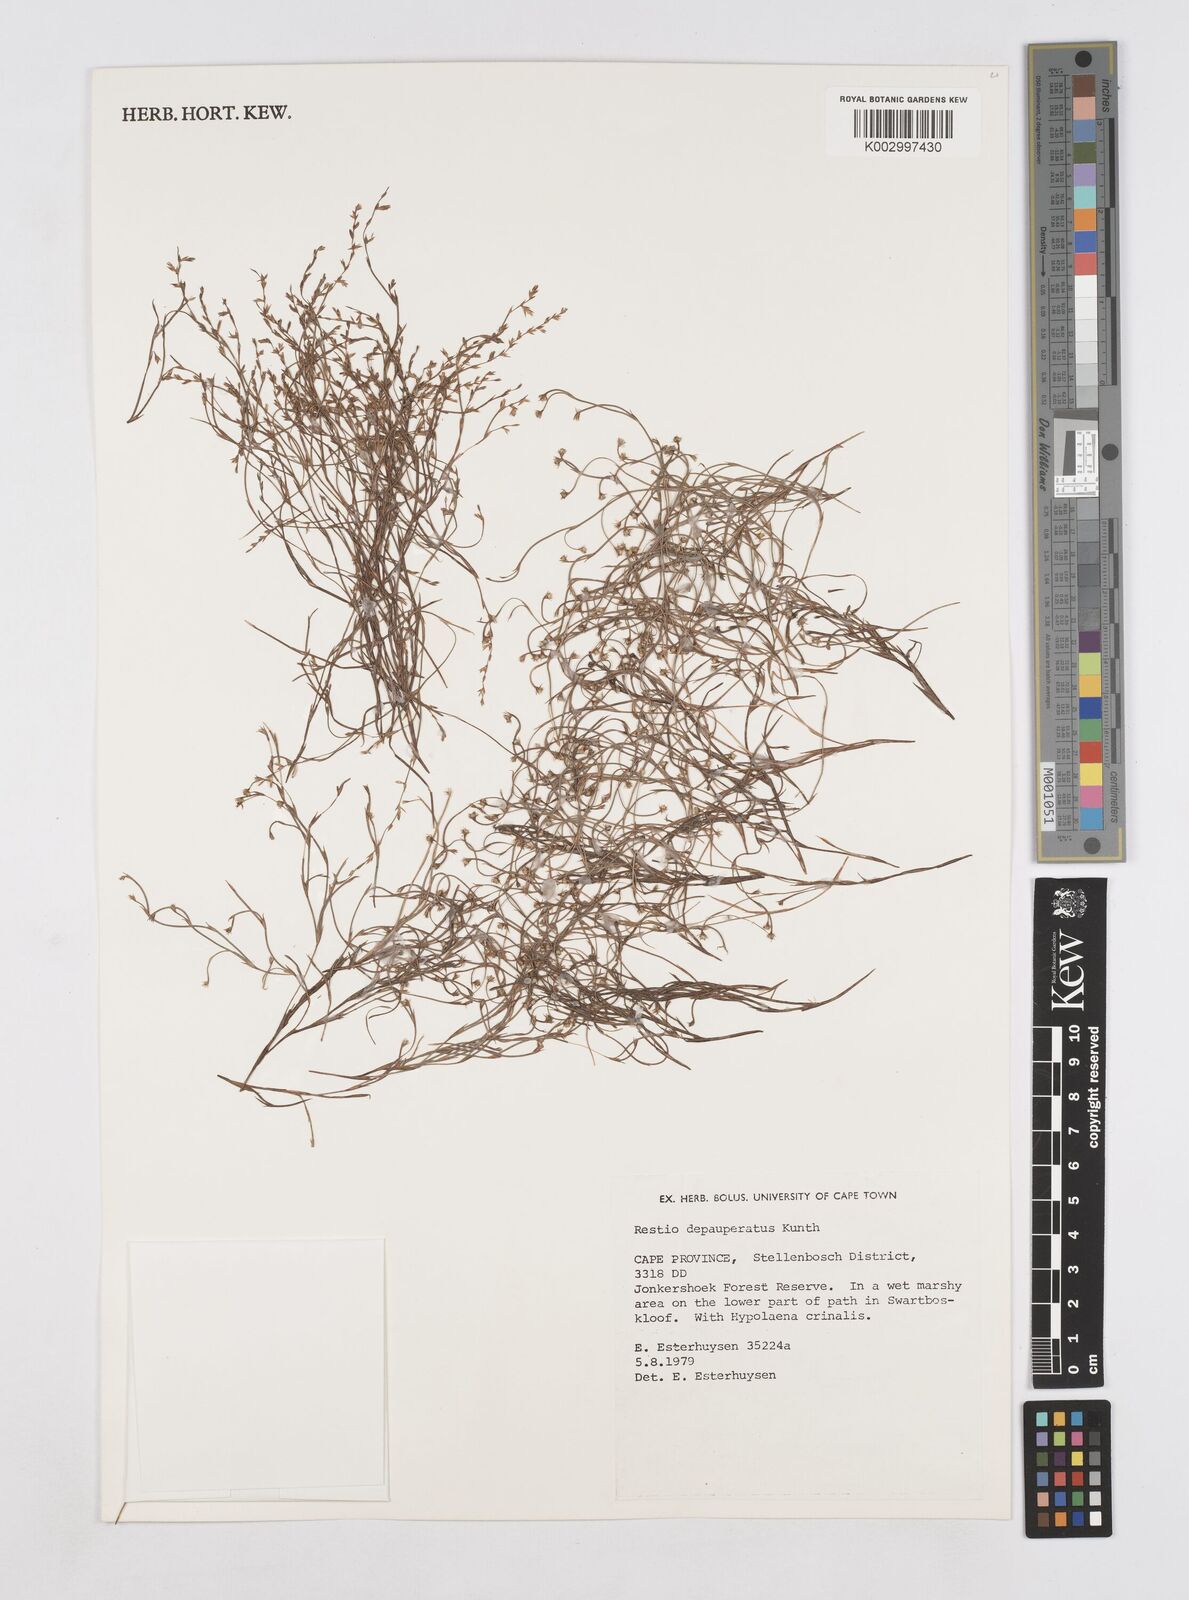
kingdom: Plantae
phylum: Tracheophyta
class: Liliopsida
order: Poales
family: Restionaceae
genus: Platycaulos
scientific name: Platycaulos depauperatus
